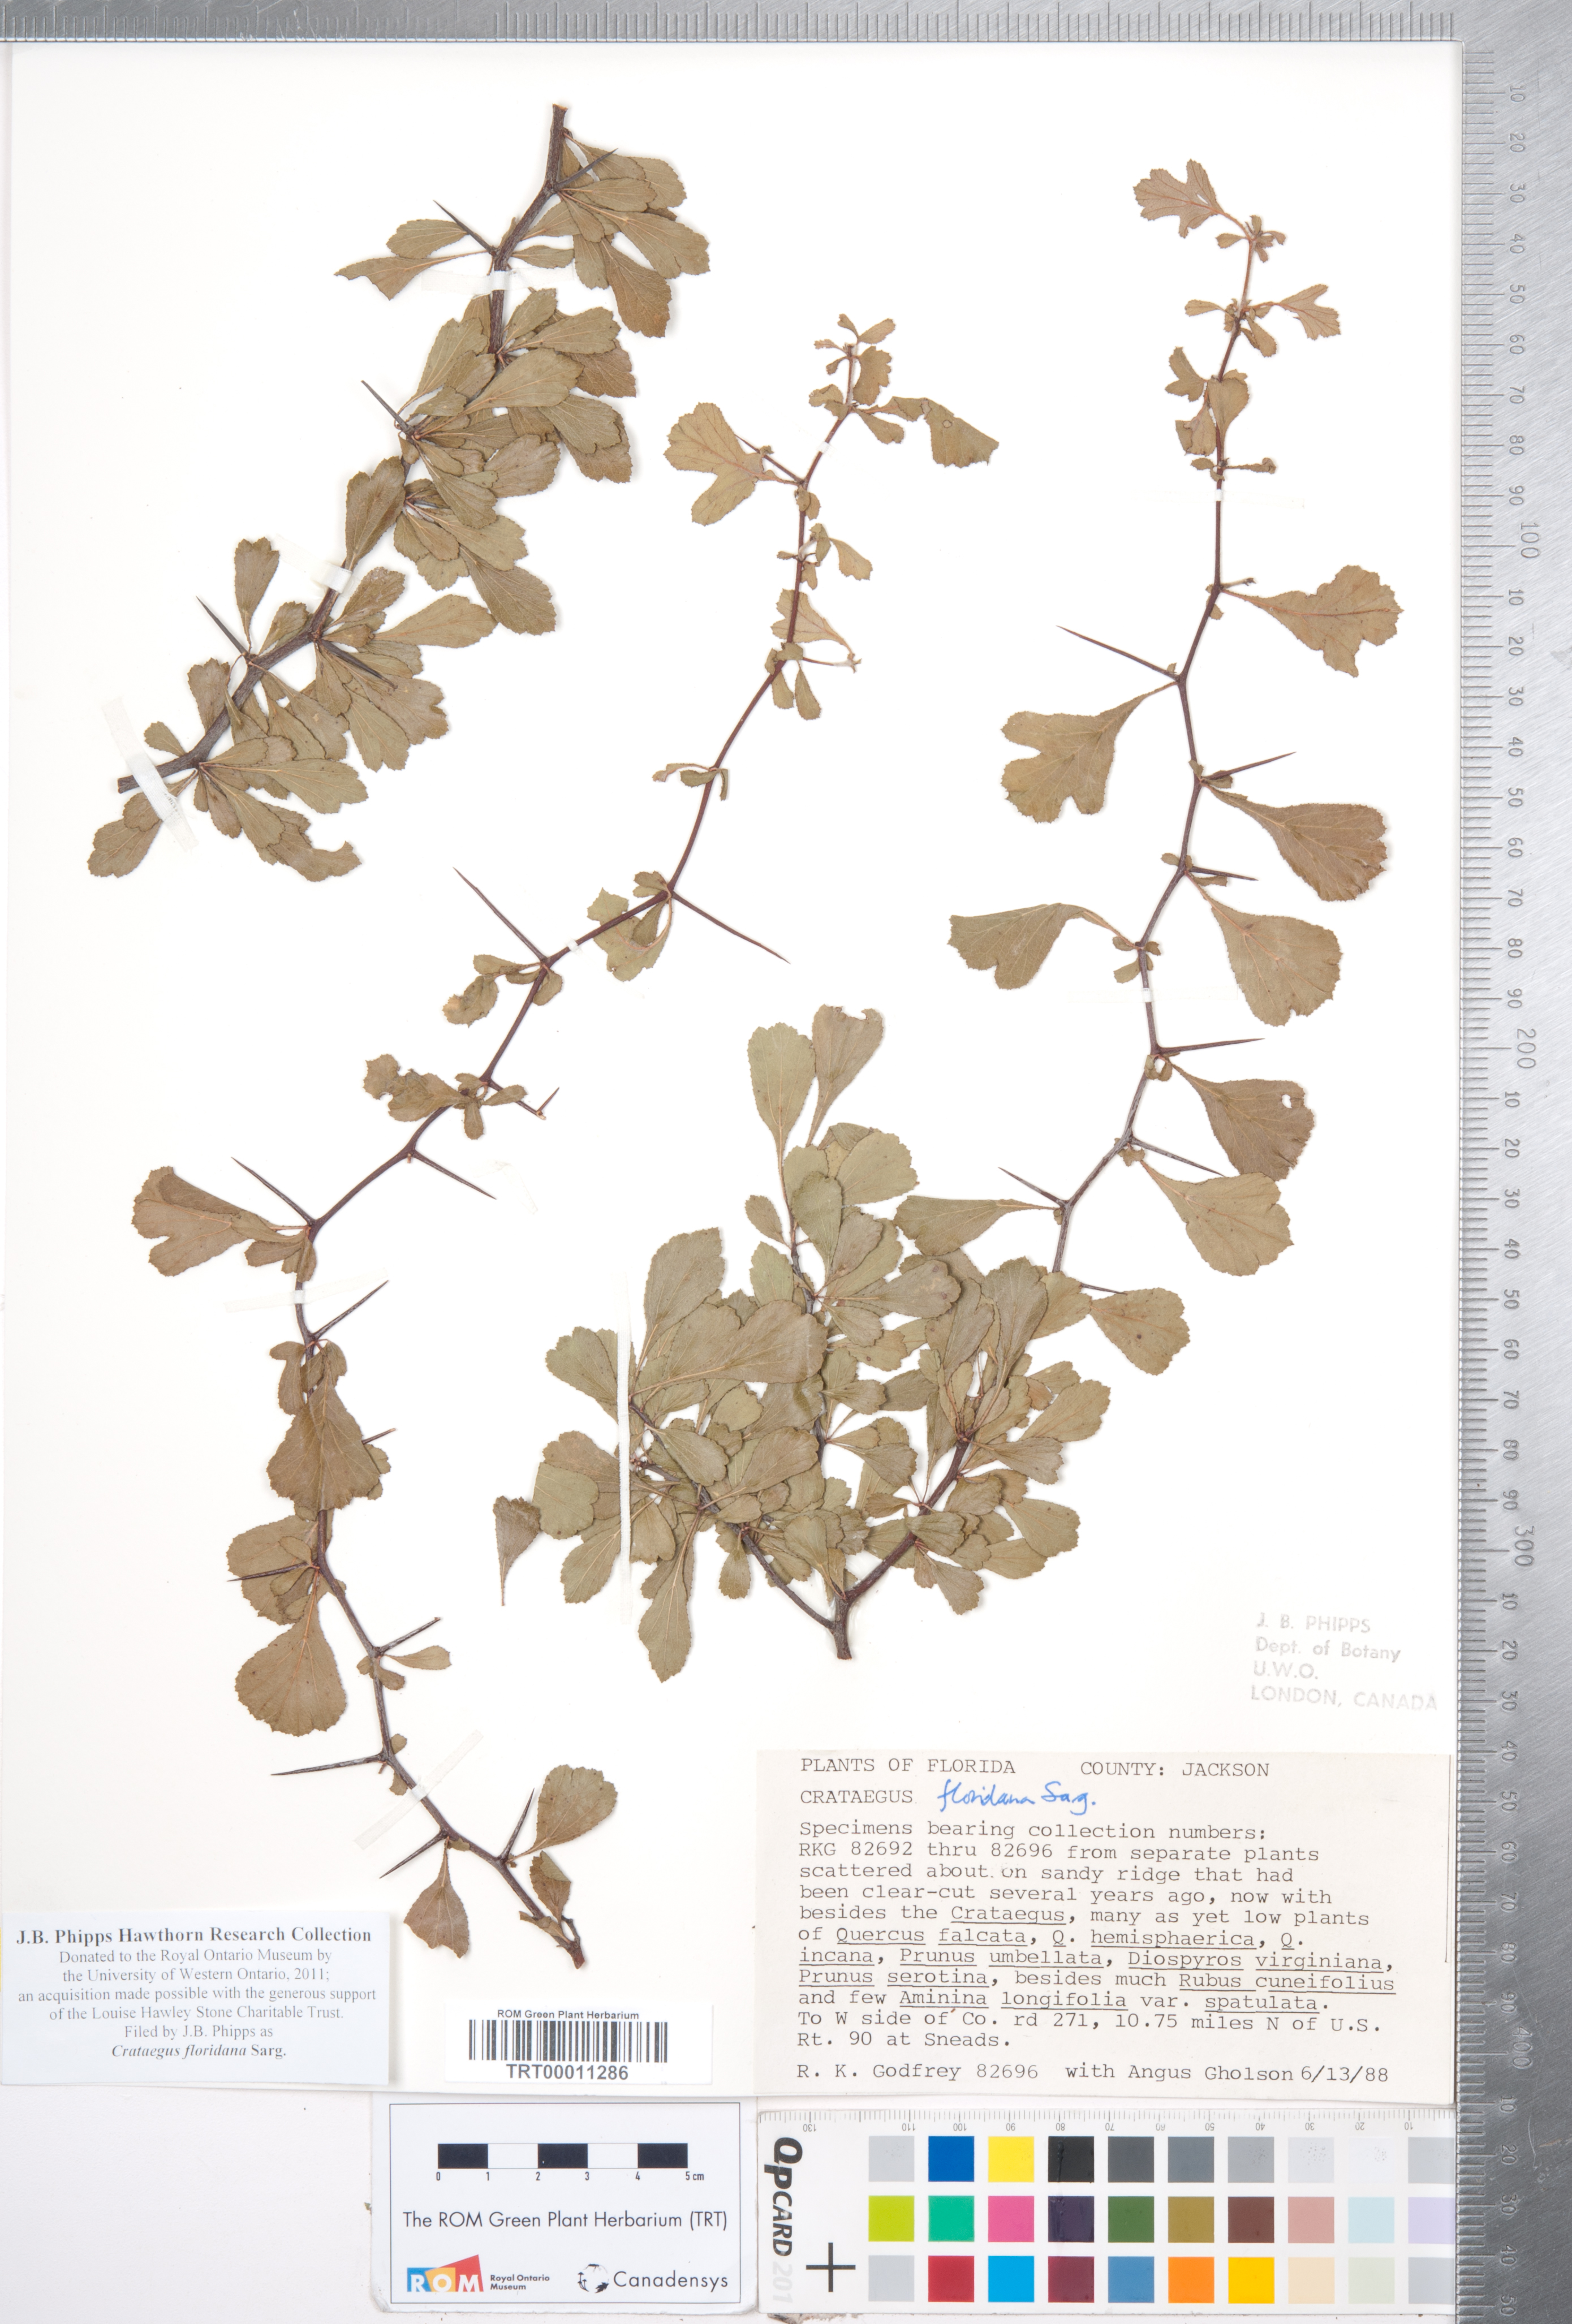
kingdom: Plantae
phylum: Tracheophyta
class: Magnoliopsida
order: Rosales
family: Rosaceae
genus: Crataegus
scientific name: Crataegus floridana
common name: Florida haw
